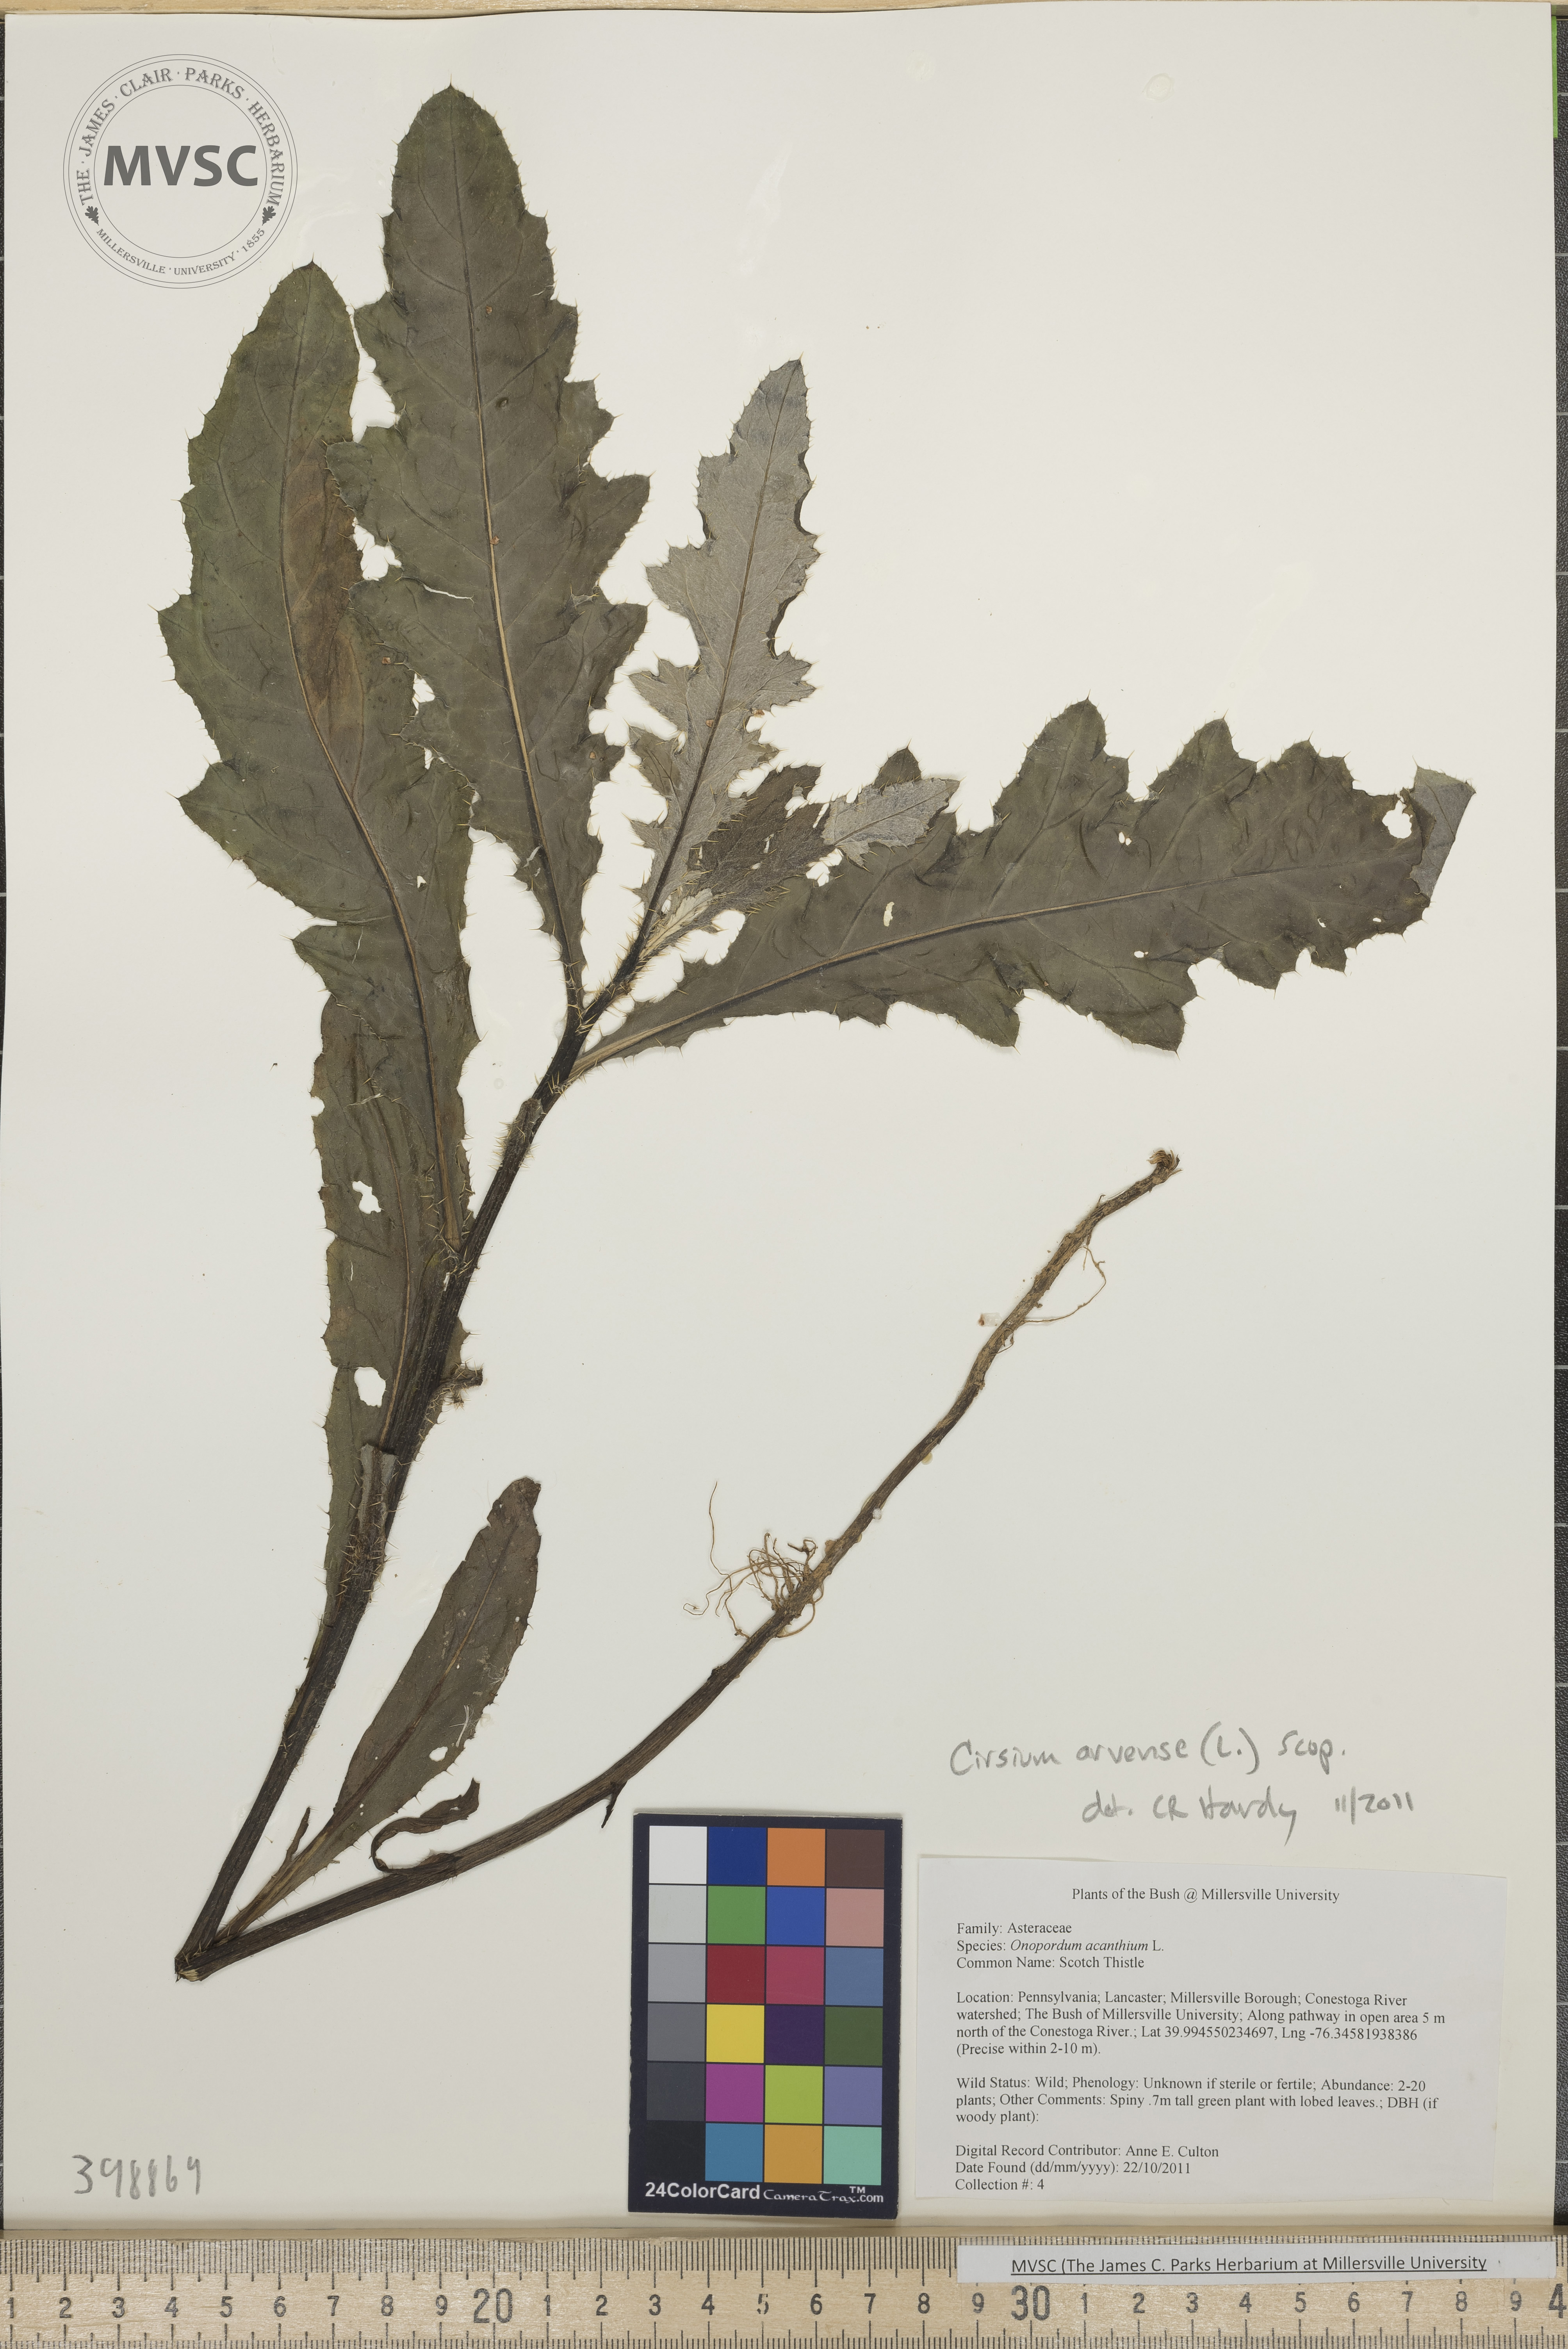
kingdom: Plantae
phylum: Tracheophyta
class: Magnoliopsida
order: Asterales
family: Asteraceae
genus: Cirsium
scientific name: Cirsium arvense
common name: Canada thistle
